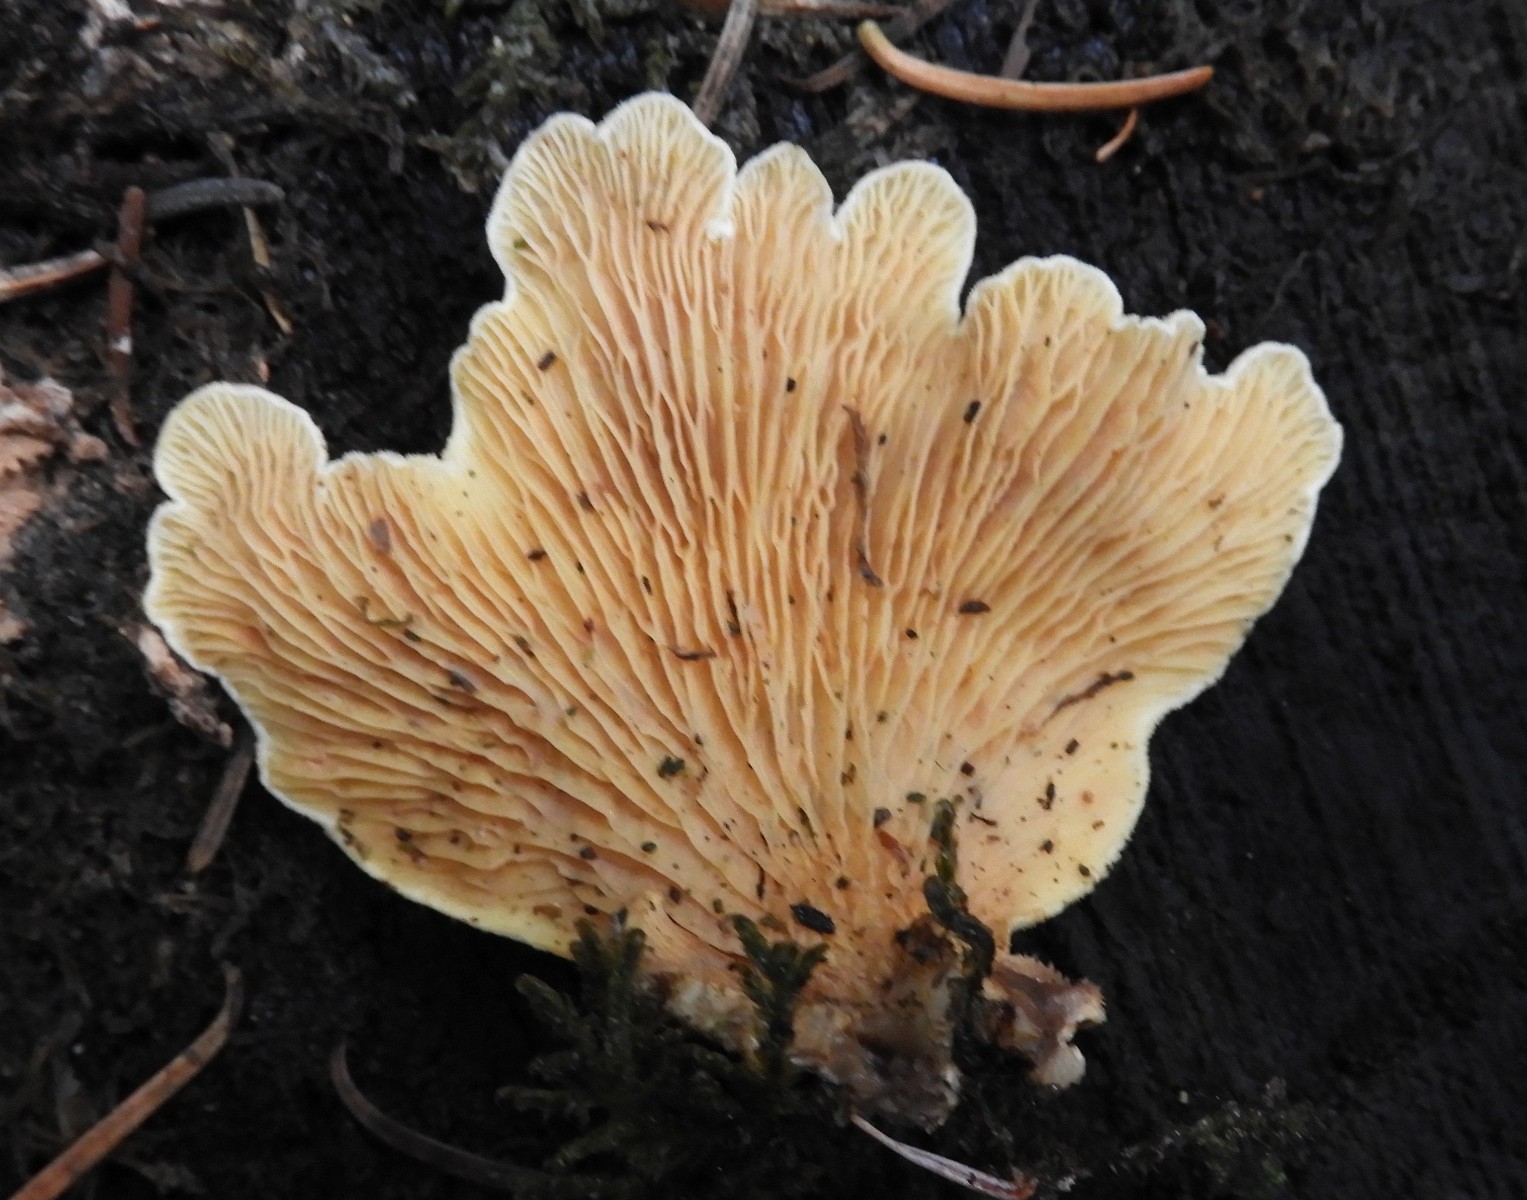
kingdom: Fungi
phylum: Basidiomycota
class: Agaricomycetes
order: Boletales
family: Tapinellaceae
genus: Tapinella
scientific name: Tapinella panuoides
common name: tømmer-viftesvamp
